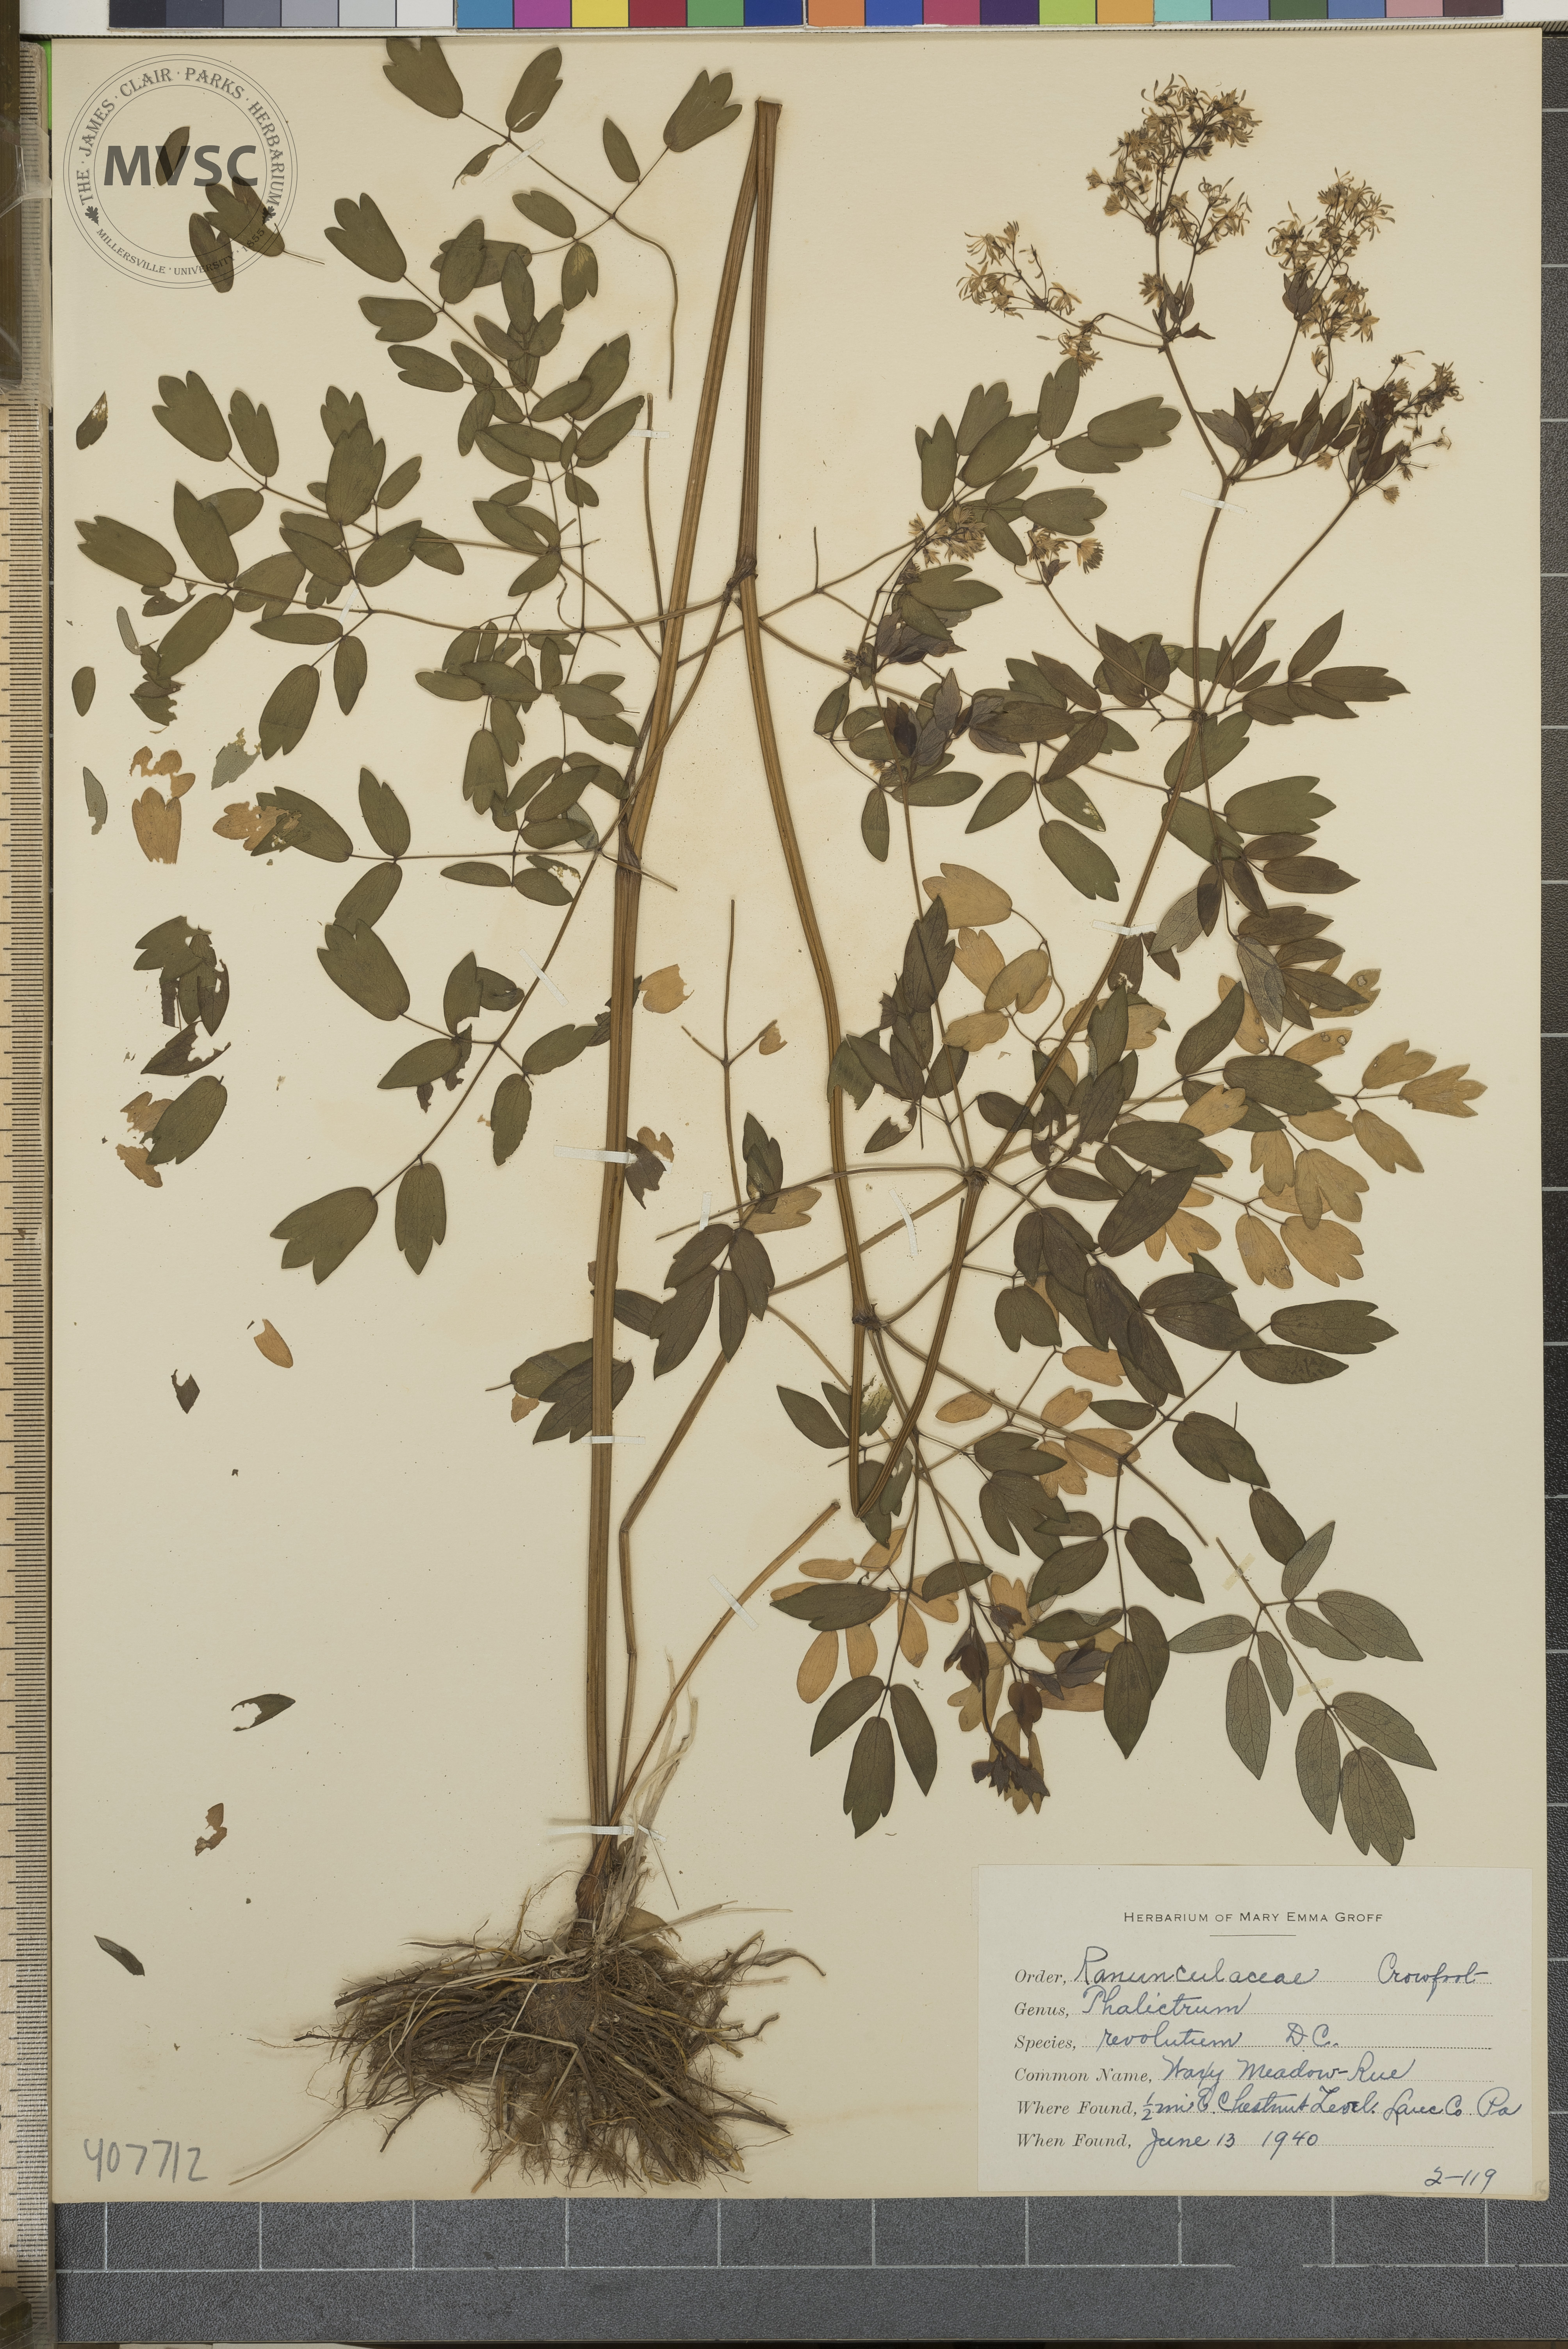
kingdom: Plantae
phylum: Tracheophyta
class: Magnoliopsida
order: Ranunculales
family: Ranunculaceae
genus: Thalictrum
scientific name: Thalictrum revolutum
